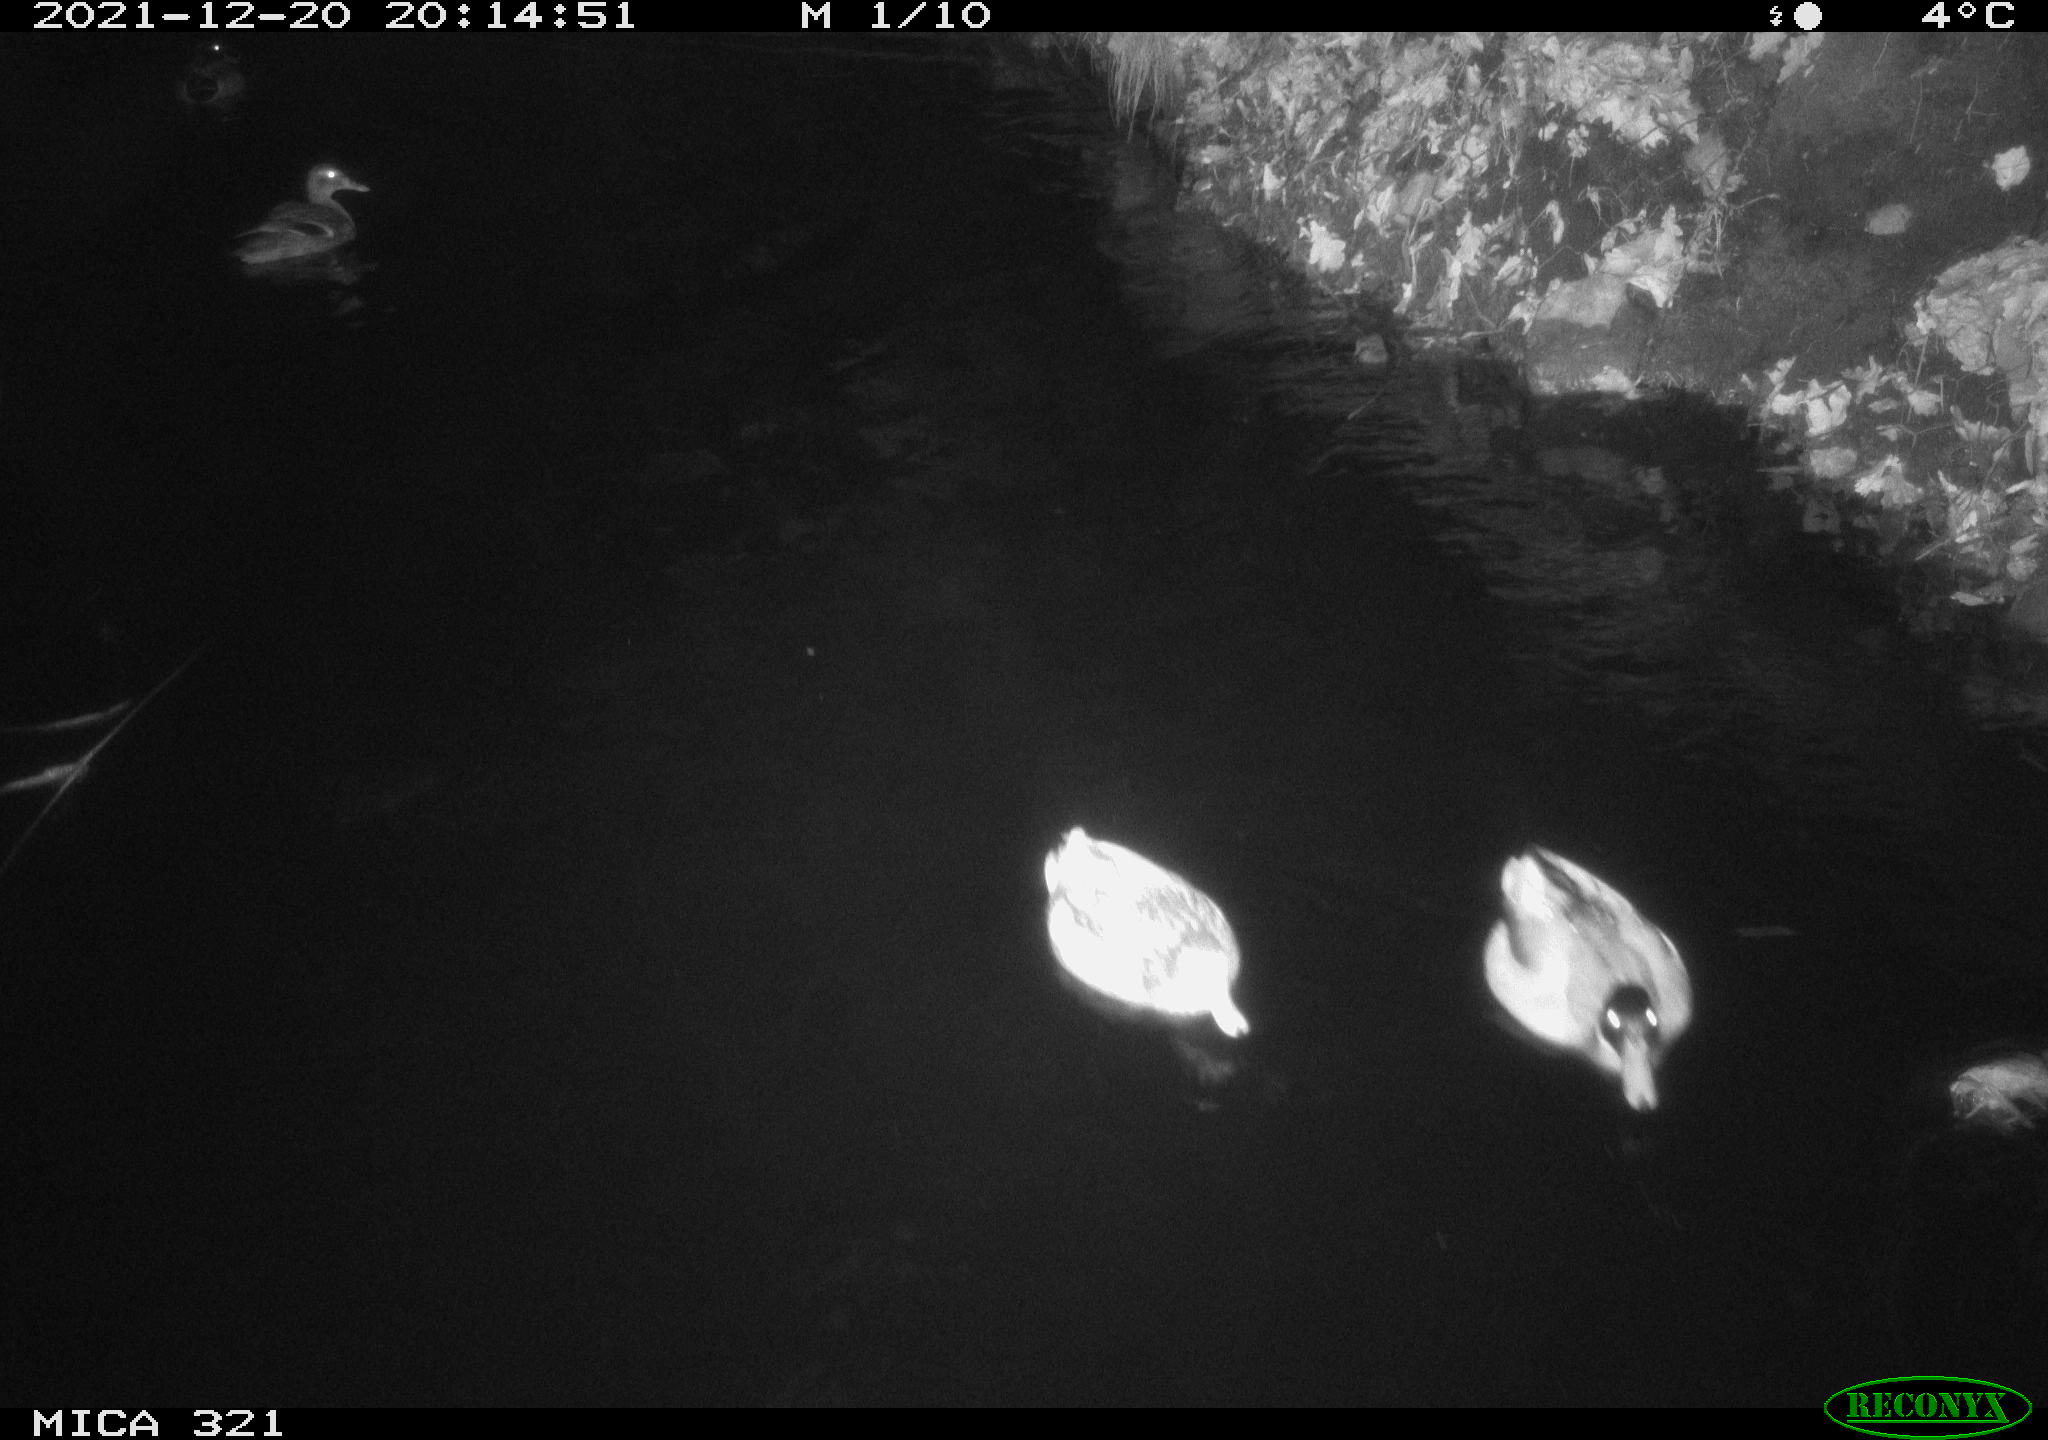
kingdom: Animalia
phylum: Chordata
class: Aves
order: Anseriformes
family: Anatidae
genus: Anas
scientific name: Anas platyrhynchos
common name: Mallard
